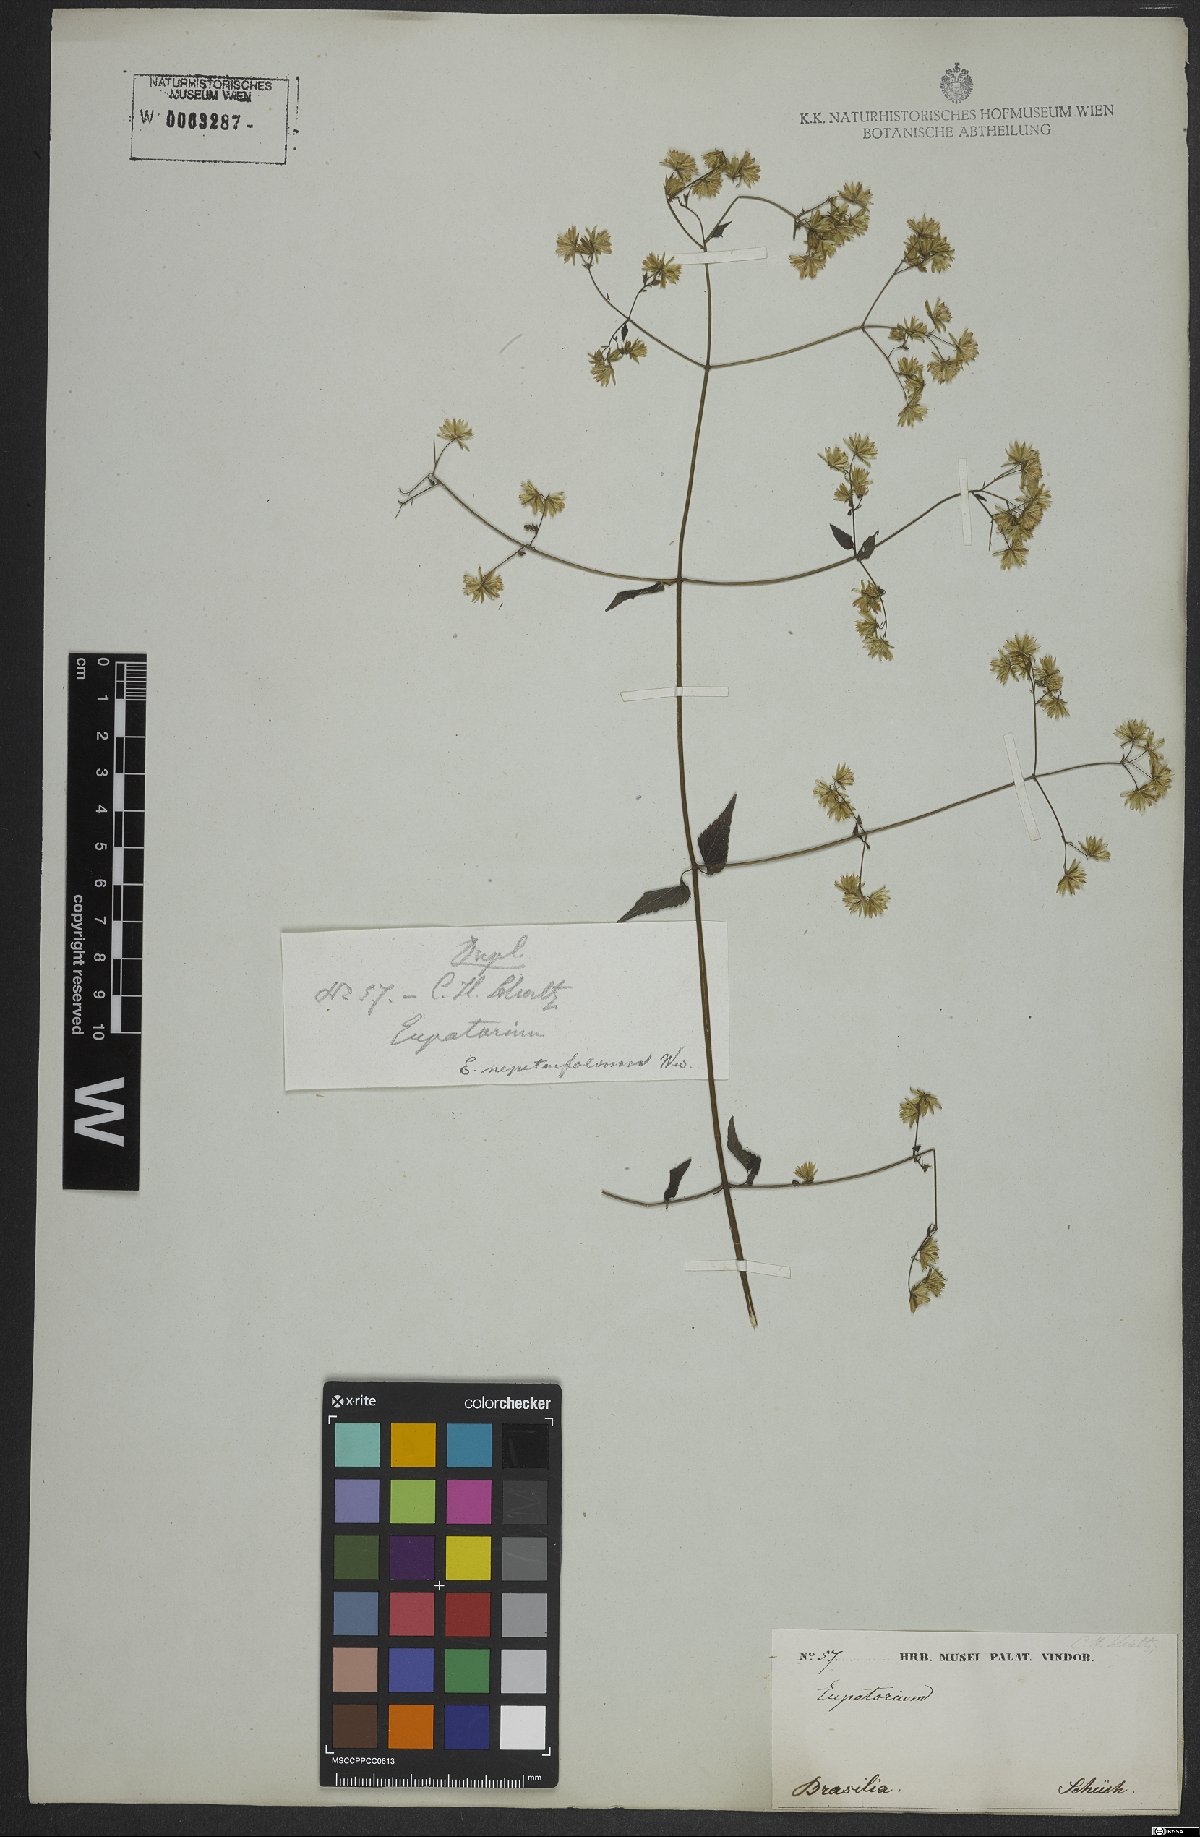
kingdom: Plantae
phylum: Tracheophyta
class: Magnoliopsida
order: Asterales
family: Asteraceae
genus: Fleischmannia
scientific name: Fleischmannia microstemon
